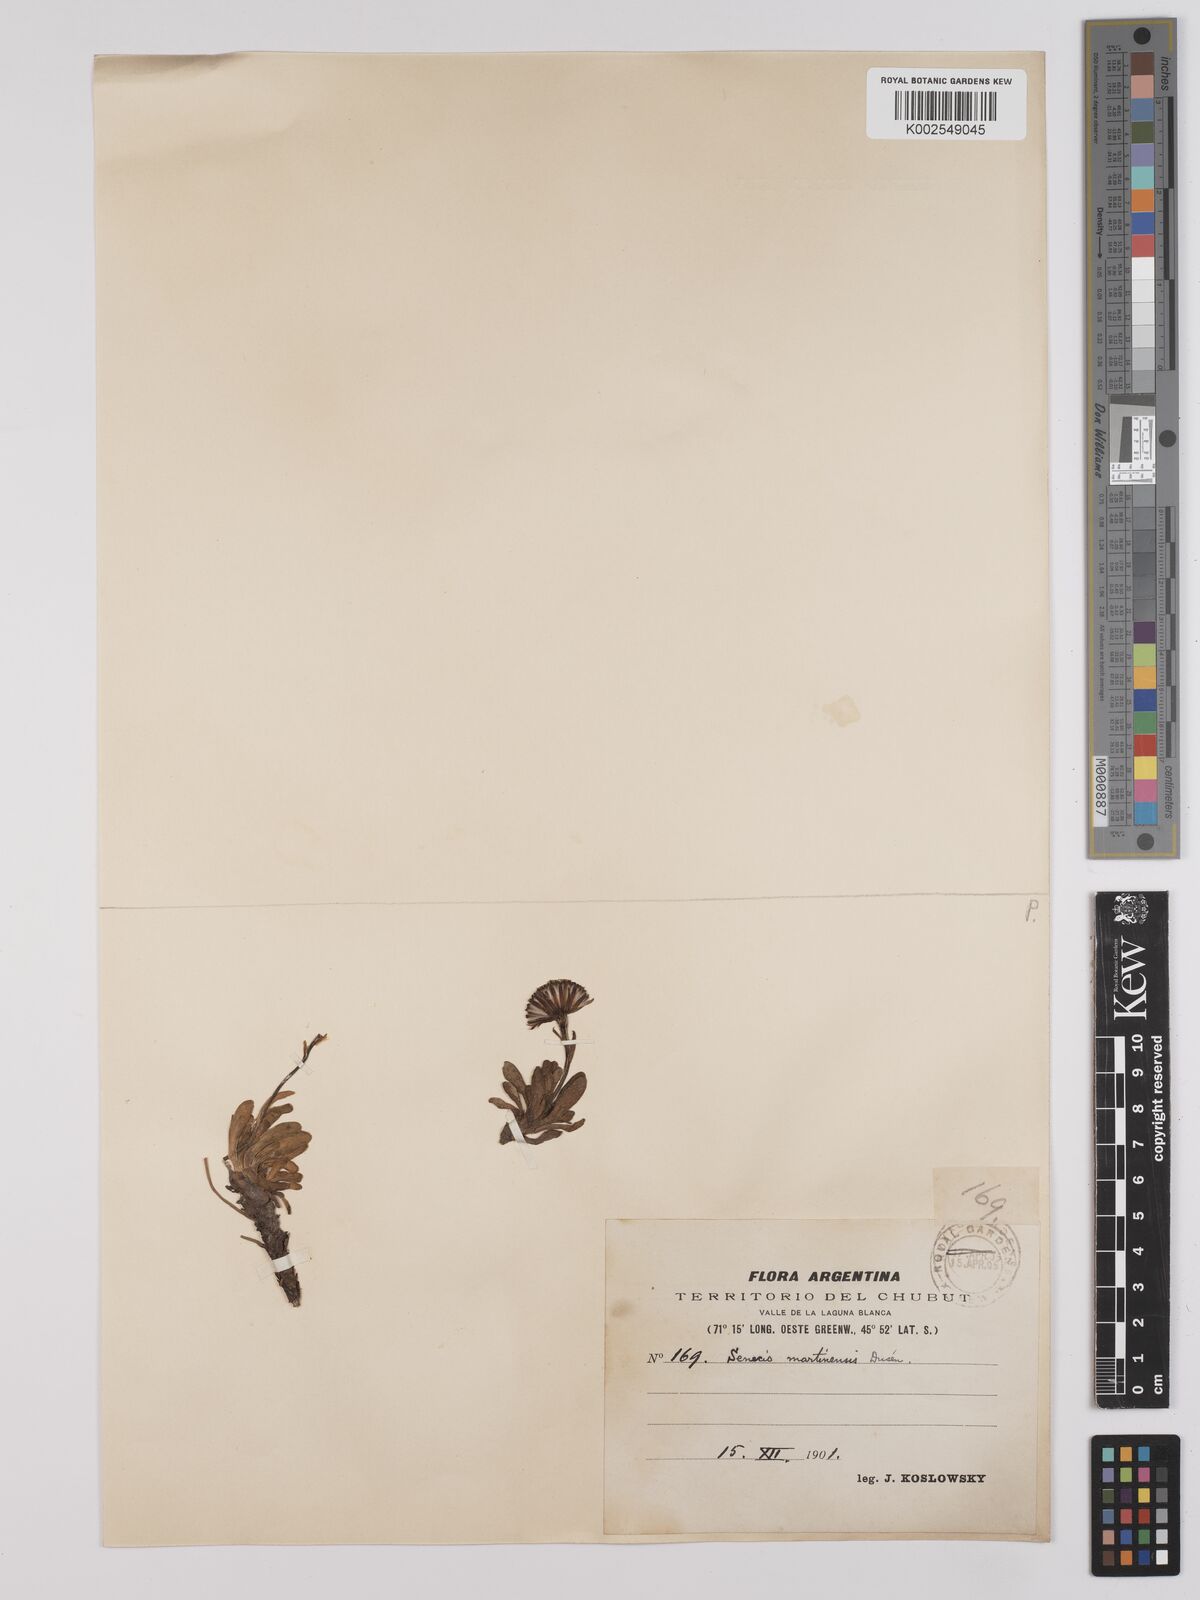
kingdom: Plantae
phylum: Tracheophyta
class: Magnoliopsida
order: Asterales
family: Asteraceae
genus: Senecio
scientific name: Senecio martinensis
